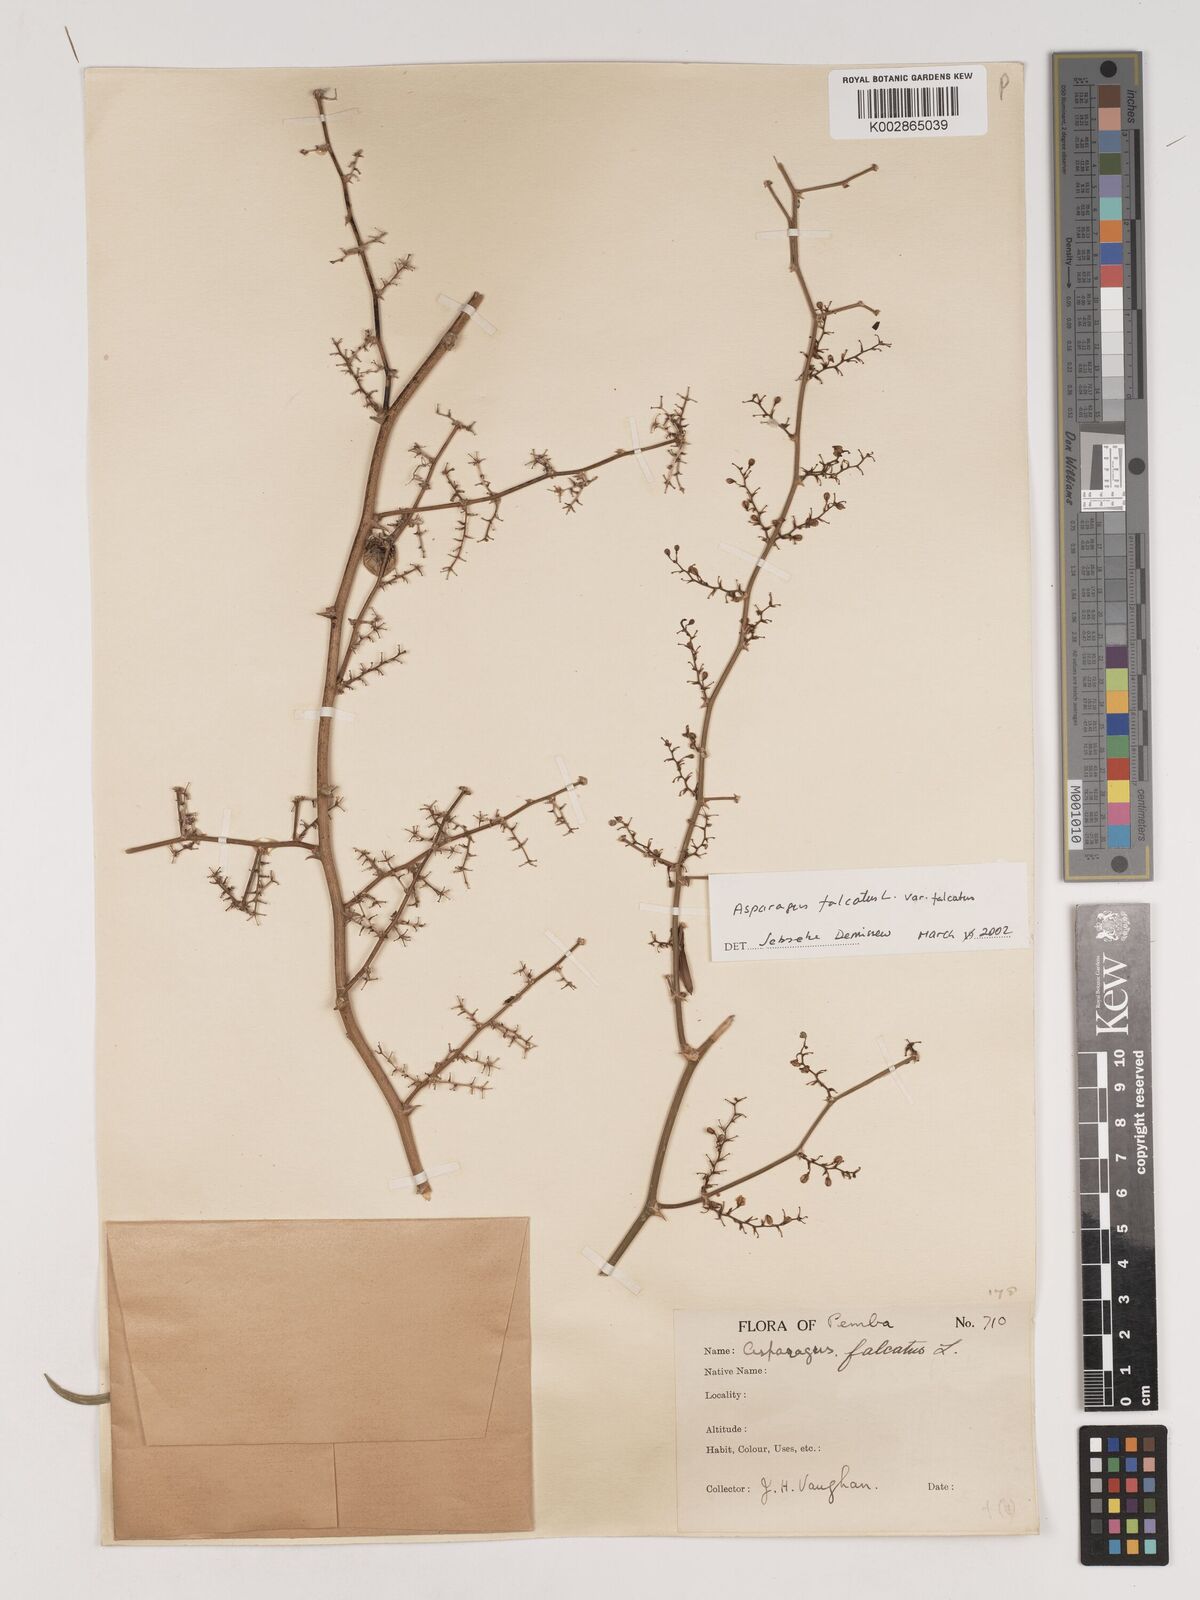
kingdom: Plantae
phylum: Tracheophyta
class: Liliopsida
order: Asparagales
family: Asparagaceae
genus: Asparagus
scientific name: Asparagus falcatus
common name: Asparagus
